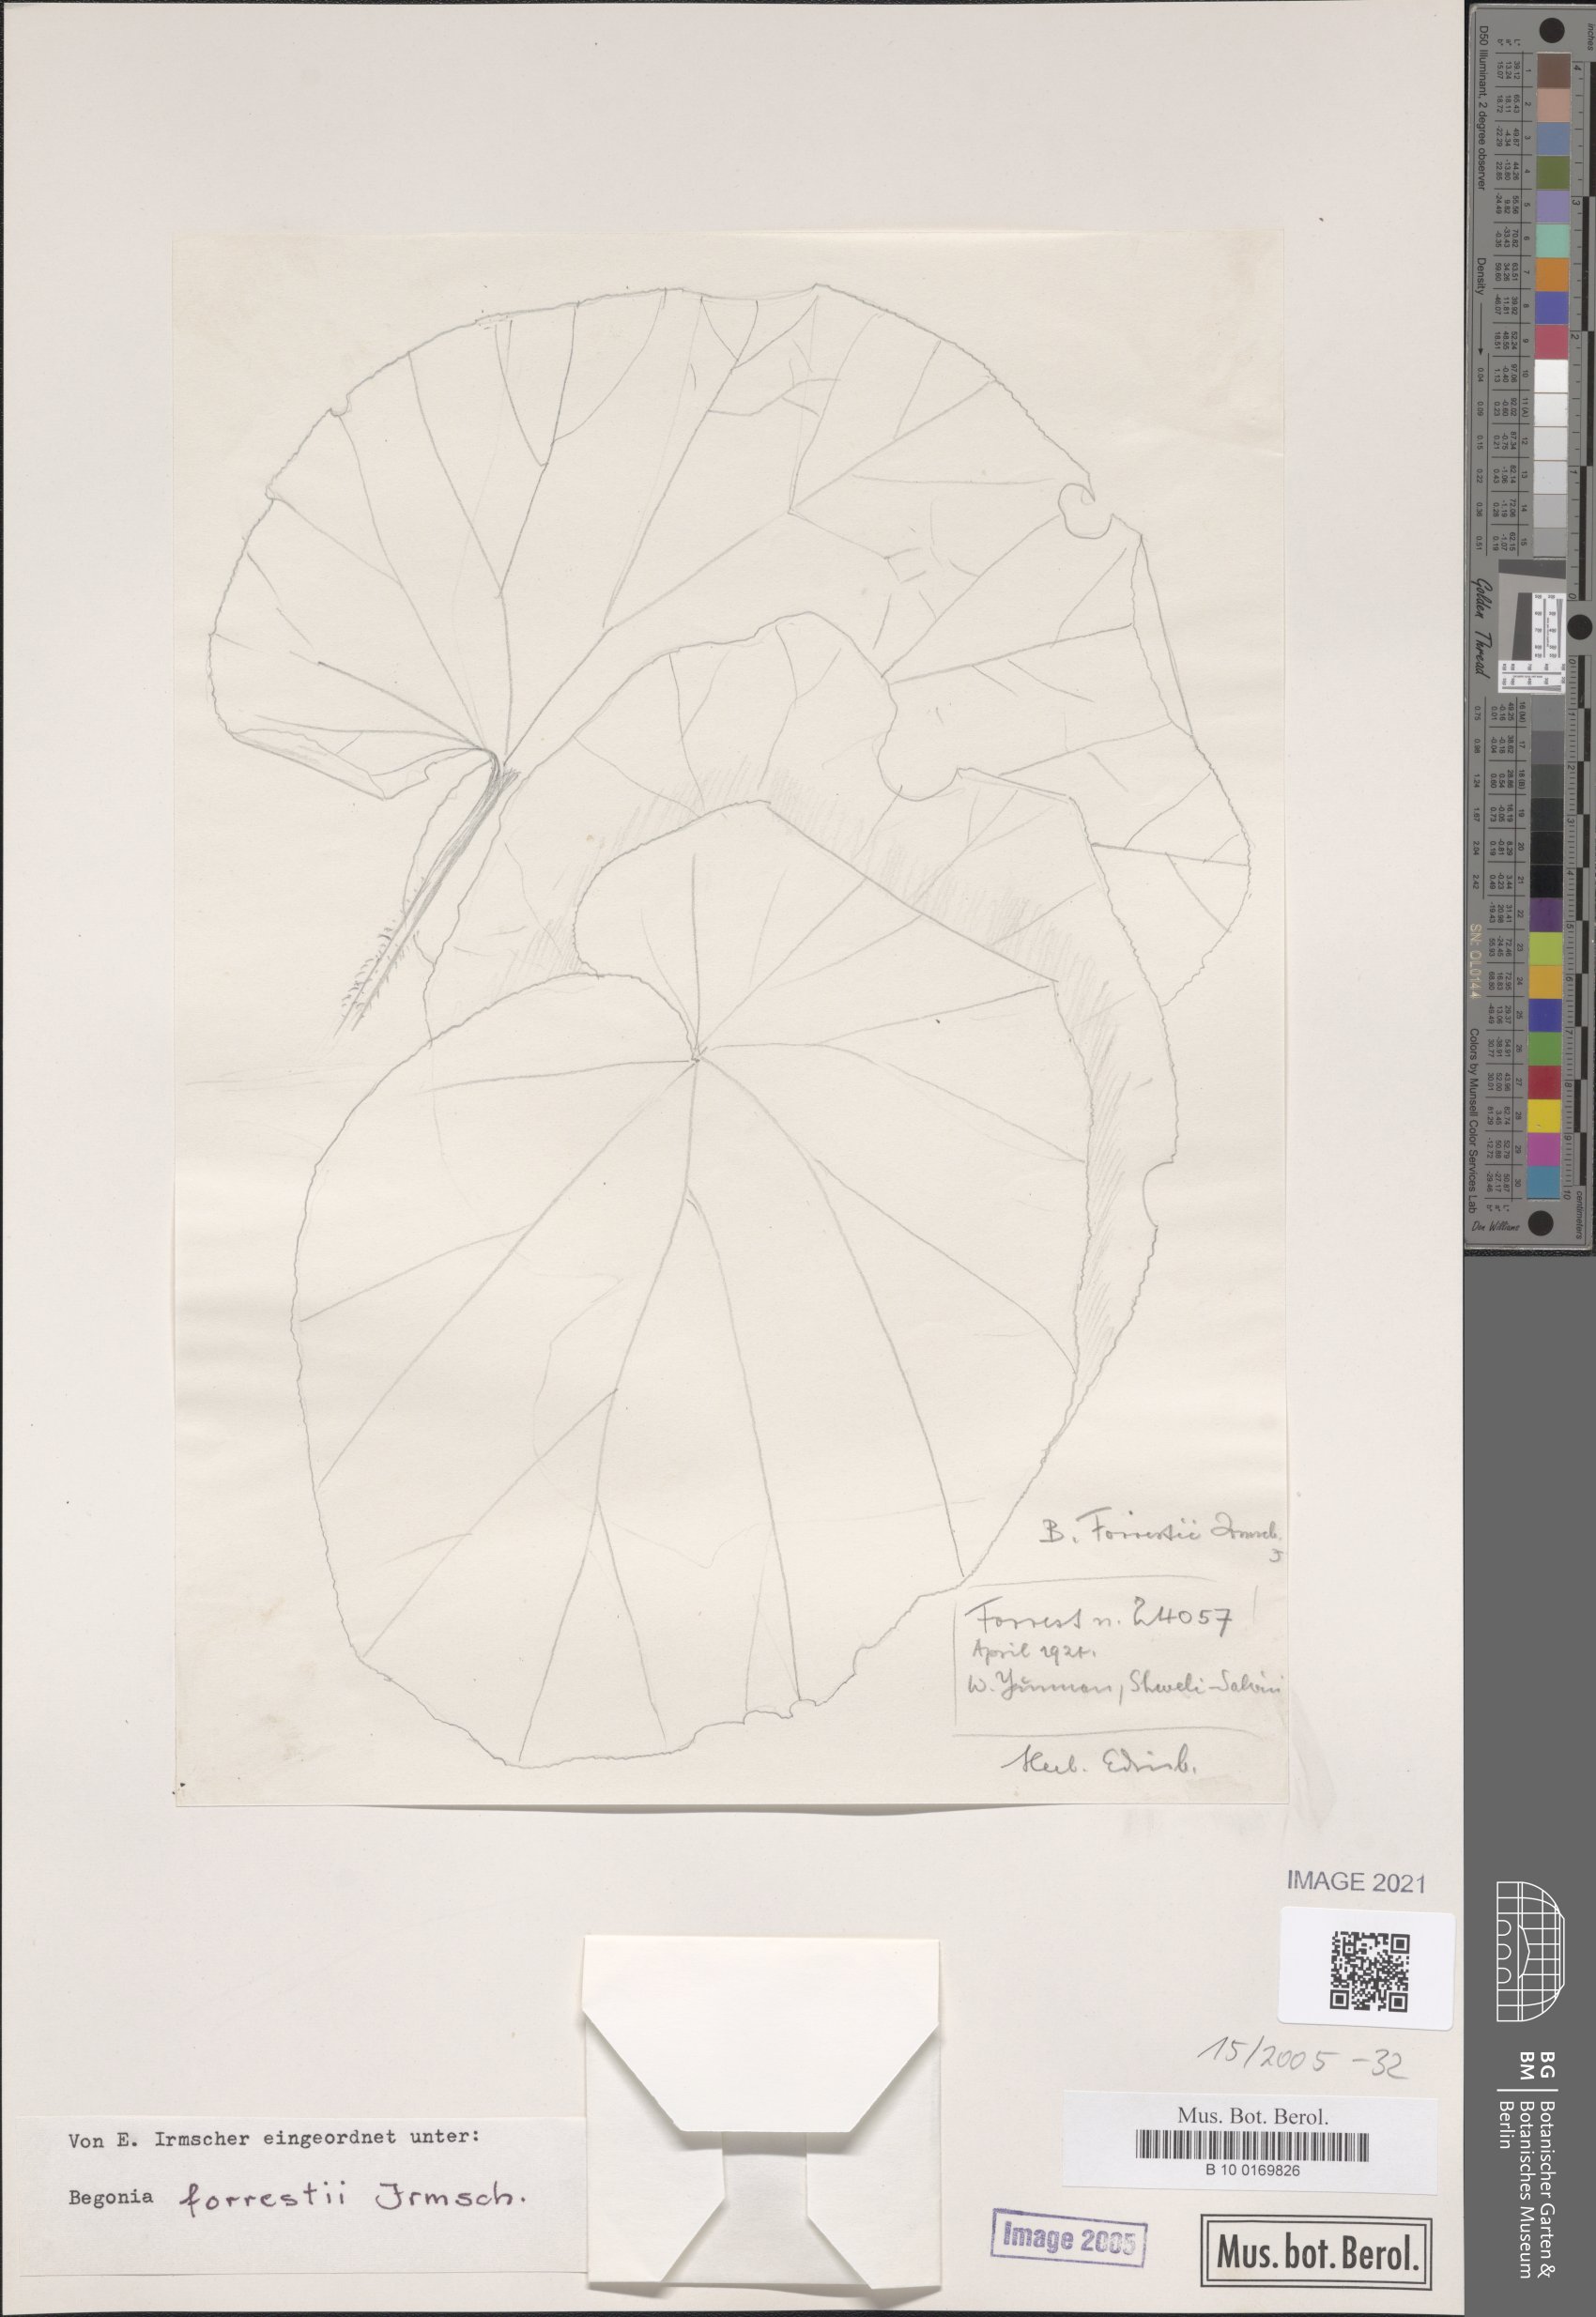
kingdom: Plantae
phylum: Tracheophyta
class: Magnoliopsida
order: Cucurbitales
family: Begoniaceae
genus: Begonia
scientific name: Begonia forrestii
